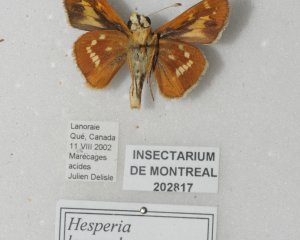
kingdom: Animalia
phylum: Arthropoda
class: Insecta
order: Lepidoptera
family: Hesperiidae
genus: Hesperia
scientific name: Hesperia leonardus
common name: Leonard's Skipper
